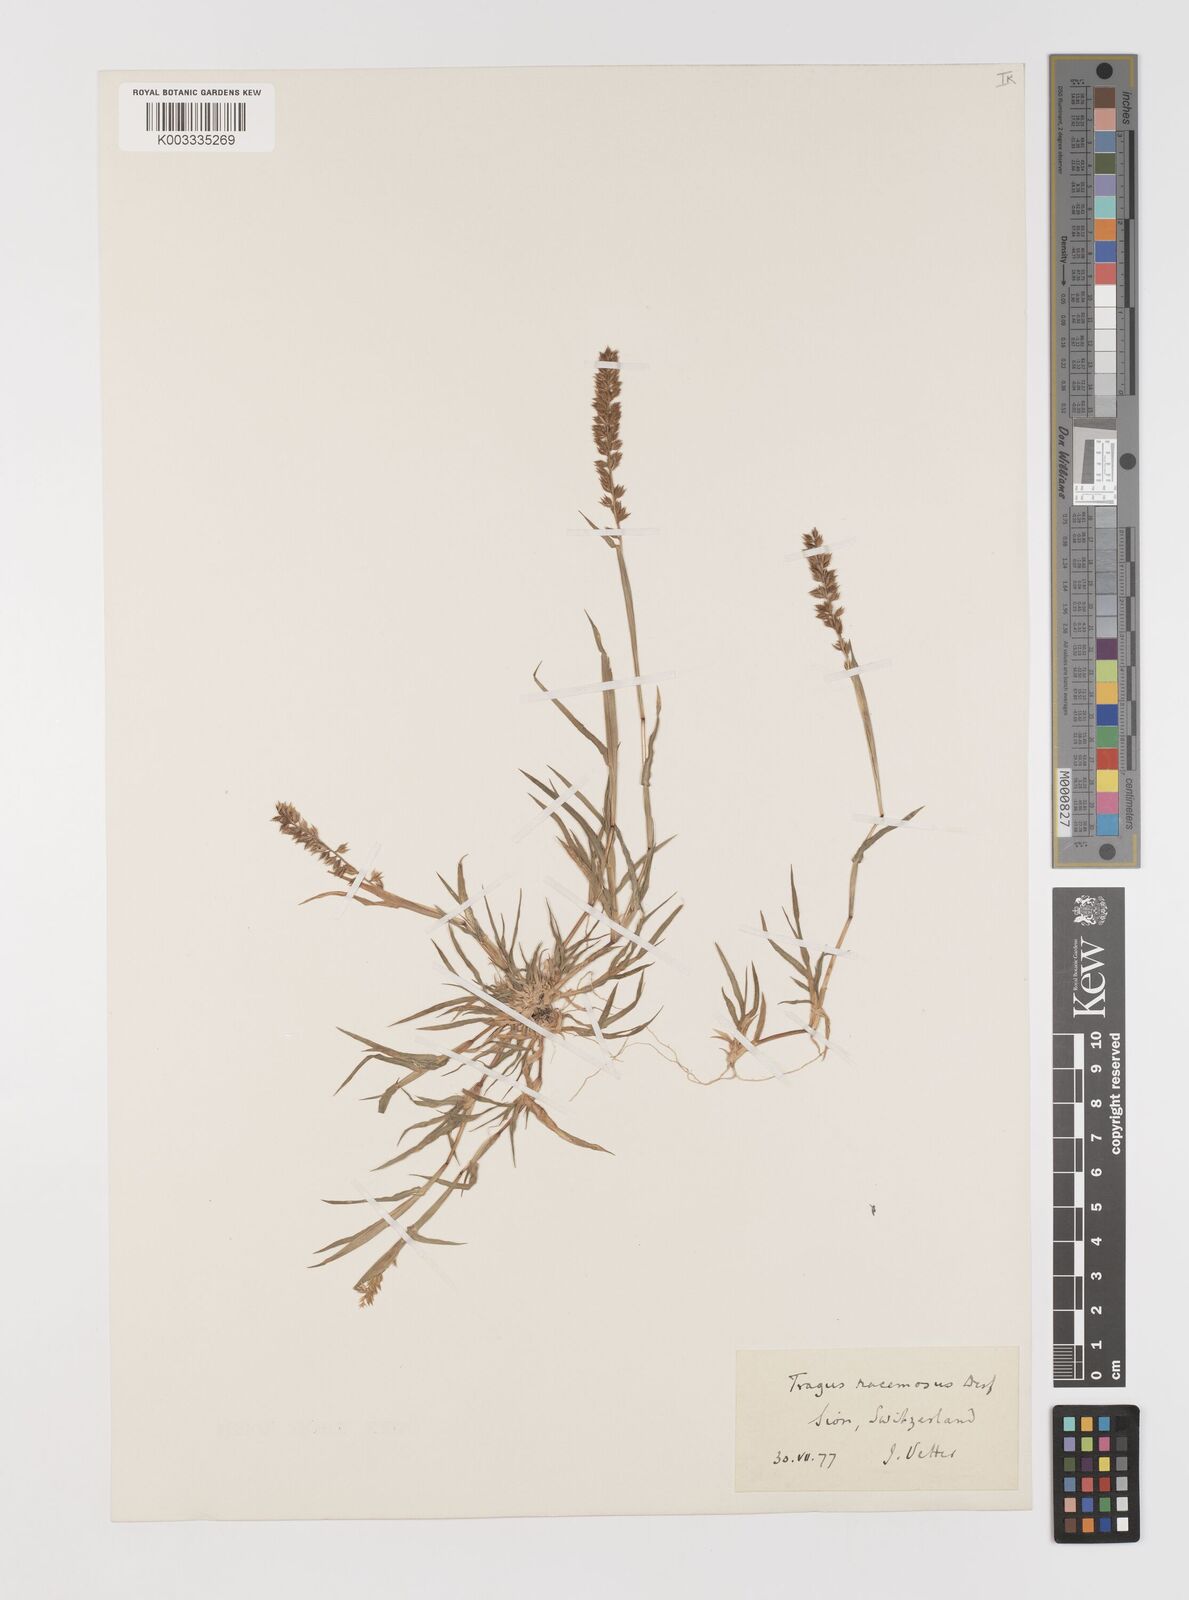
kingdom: Plantae
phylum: Tracheophyta
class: Liliopsida
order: Poales
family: Poaceae
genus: Tragus
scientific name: Tragus racemosus
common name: European bur-grass
